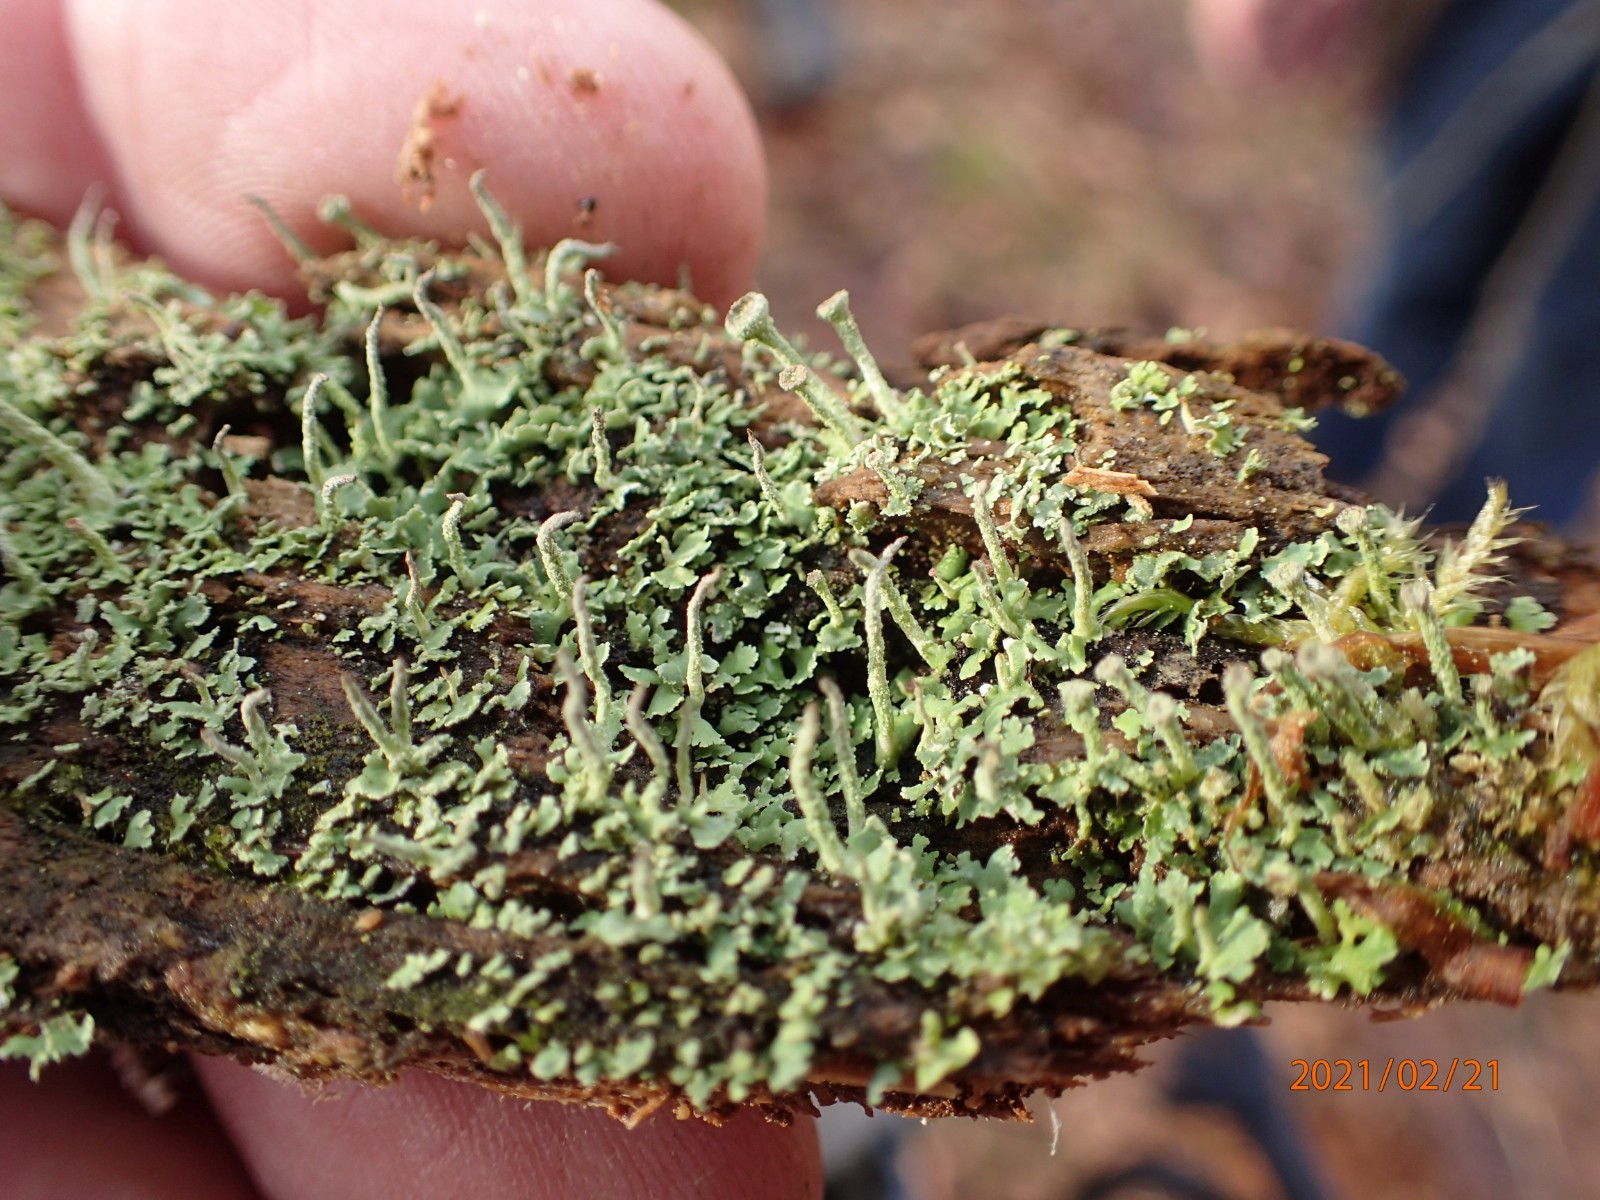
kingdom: Fungi
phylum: Ascomycota
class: Lecanoromycetes
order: Lecanorales
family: Cladoniaceae
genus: Cladonia
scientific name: Cladonia coniocraea
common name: træfods-bægerlav
